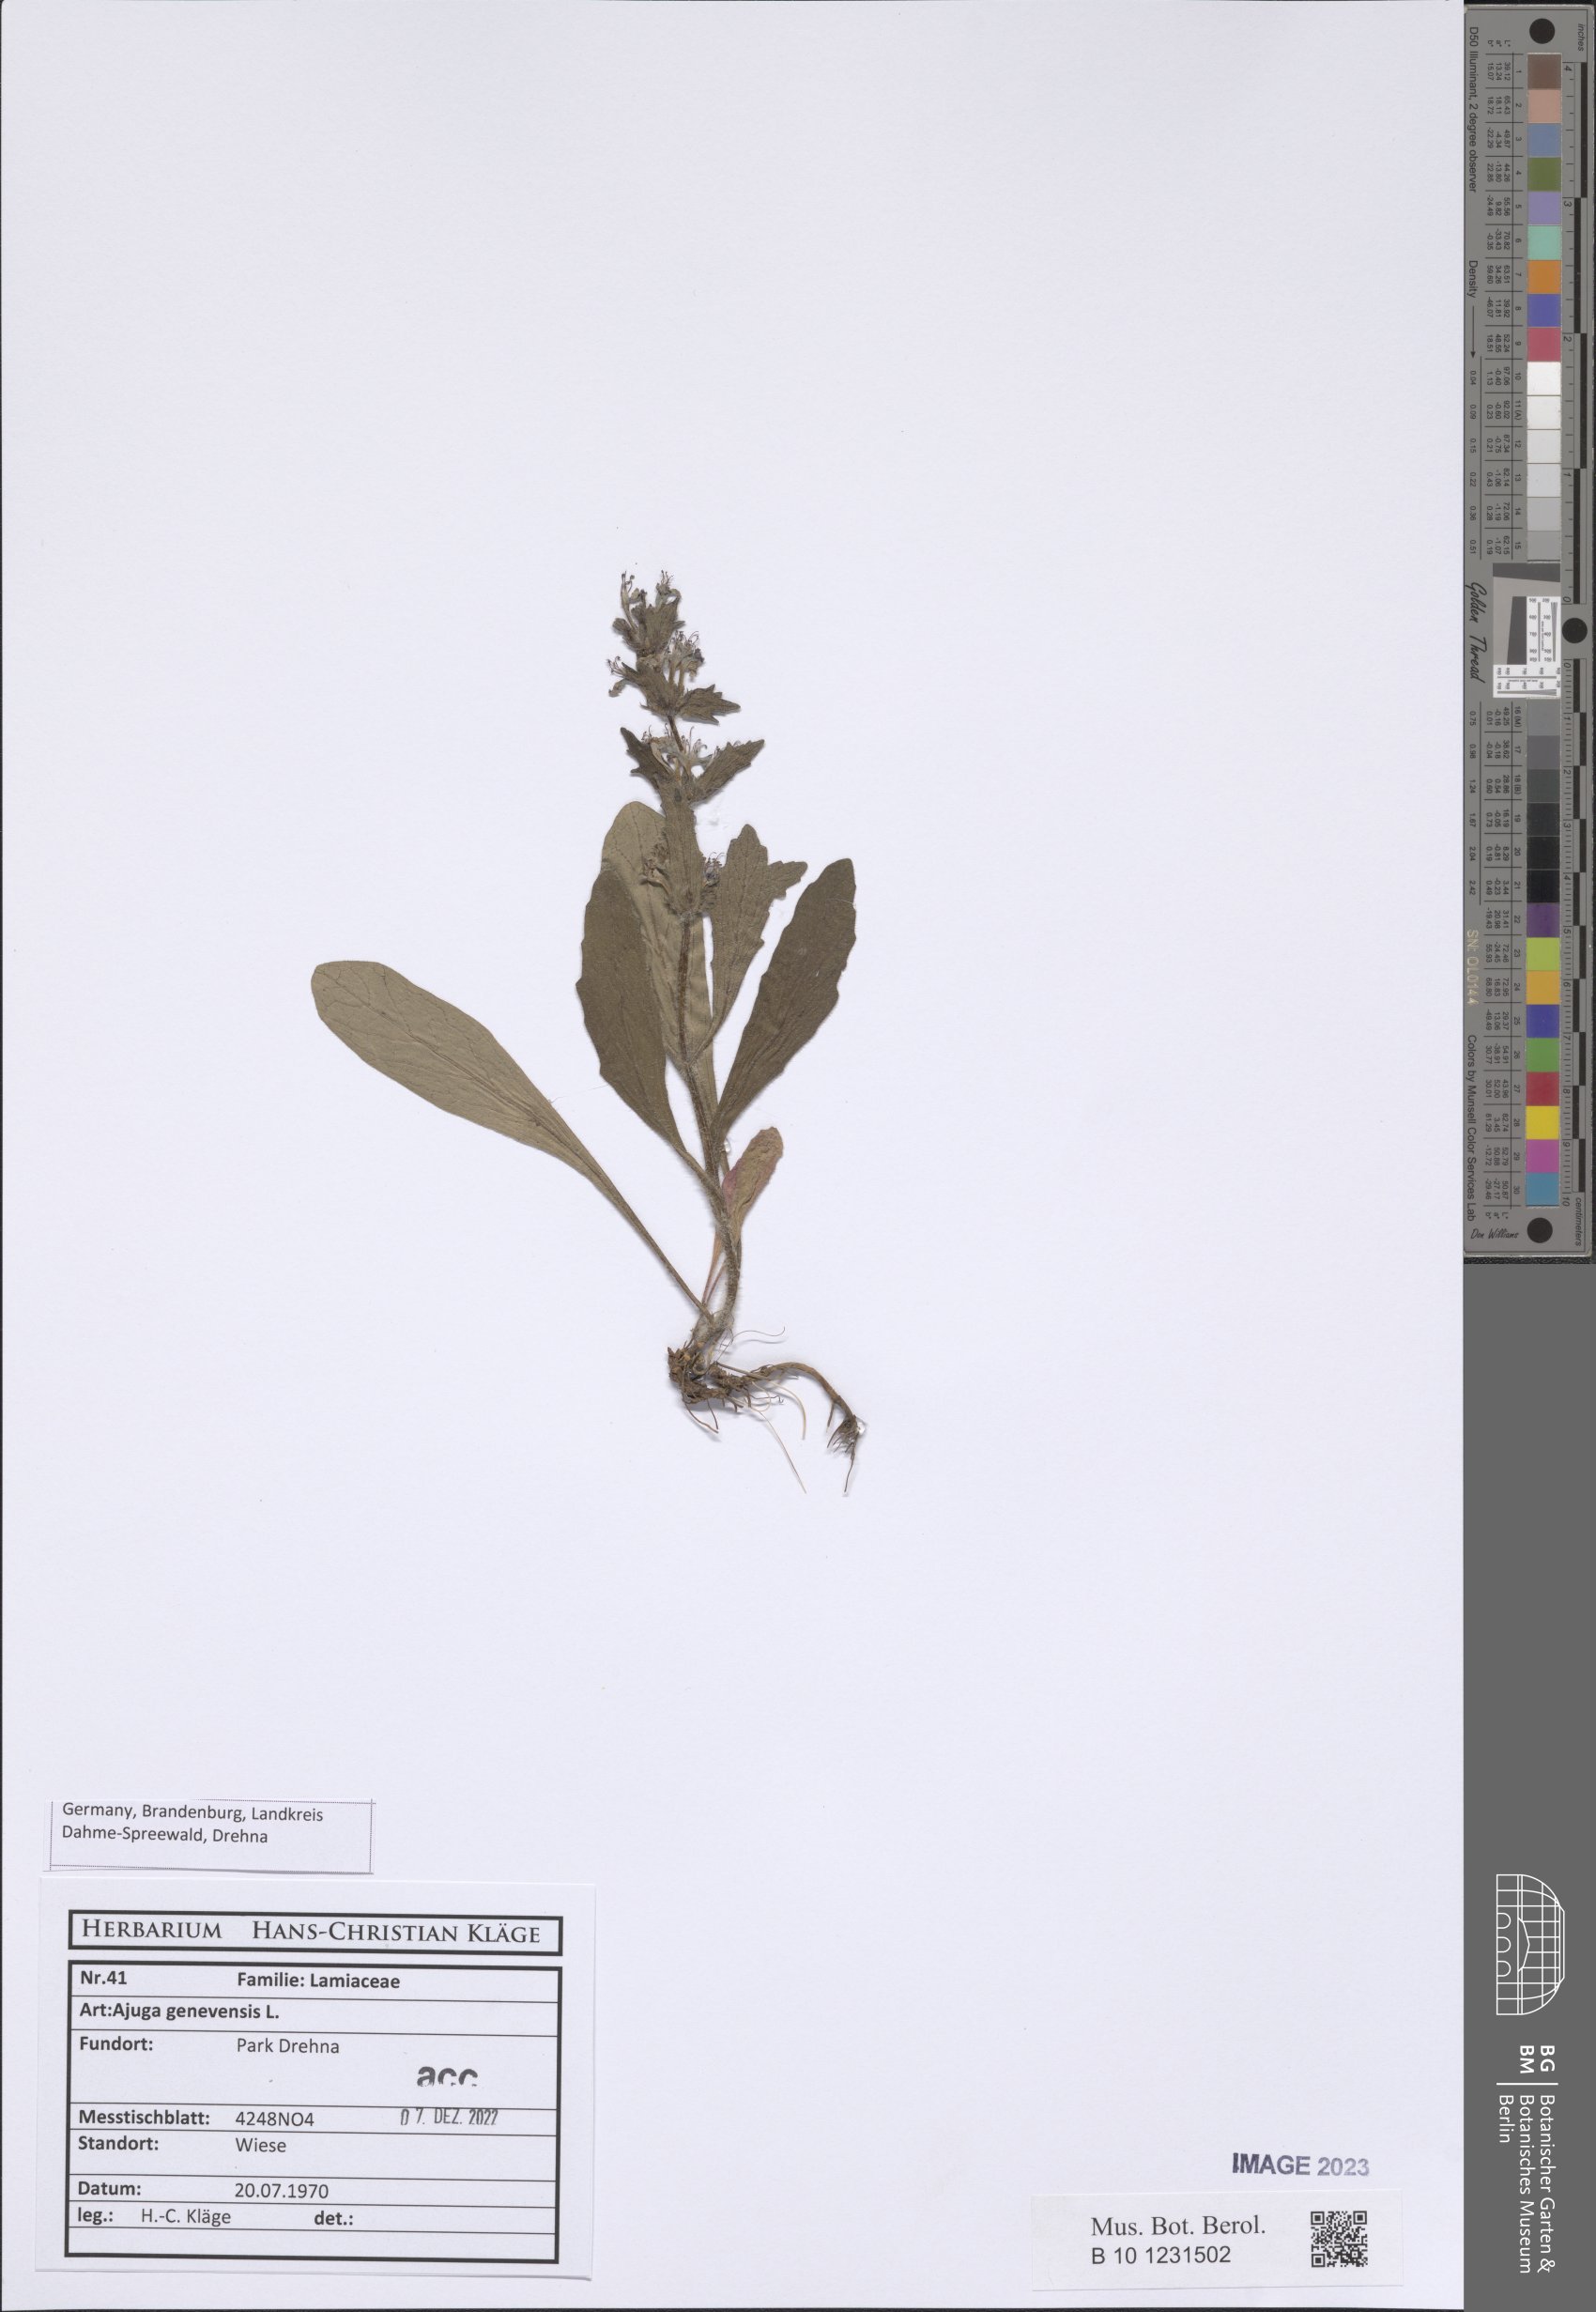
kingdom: Plantae
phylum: Tracheophyta
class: Magnoliopsida
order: Lamiales
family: Lamiaceae
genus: Ajuga
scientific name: Ajuga genevensis
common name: Blue bugle
